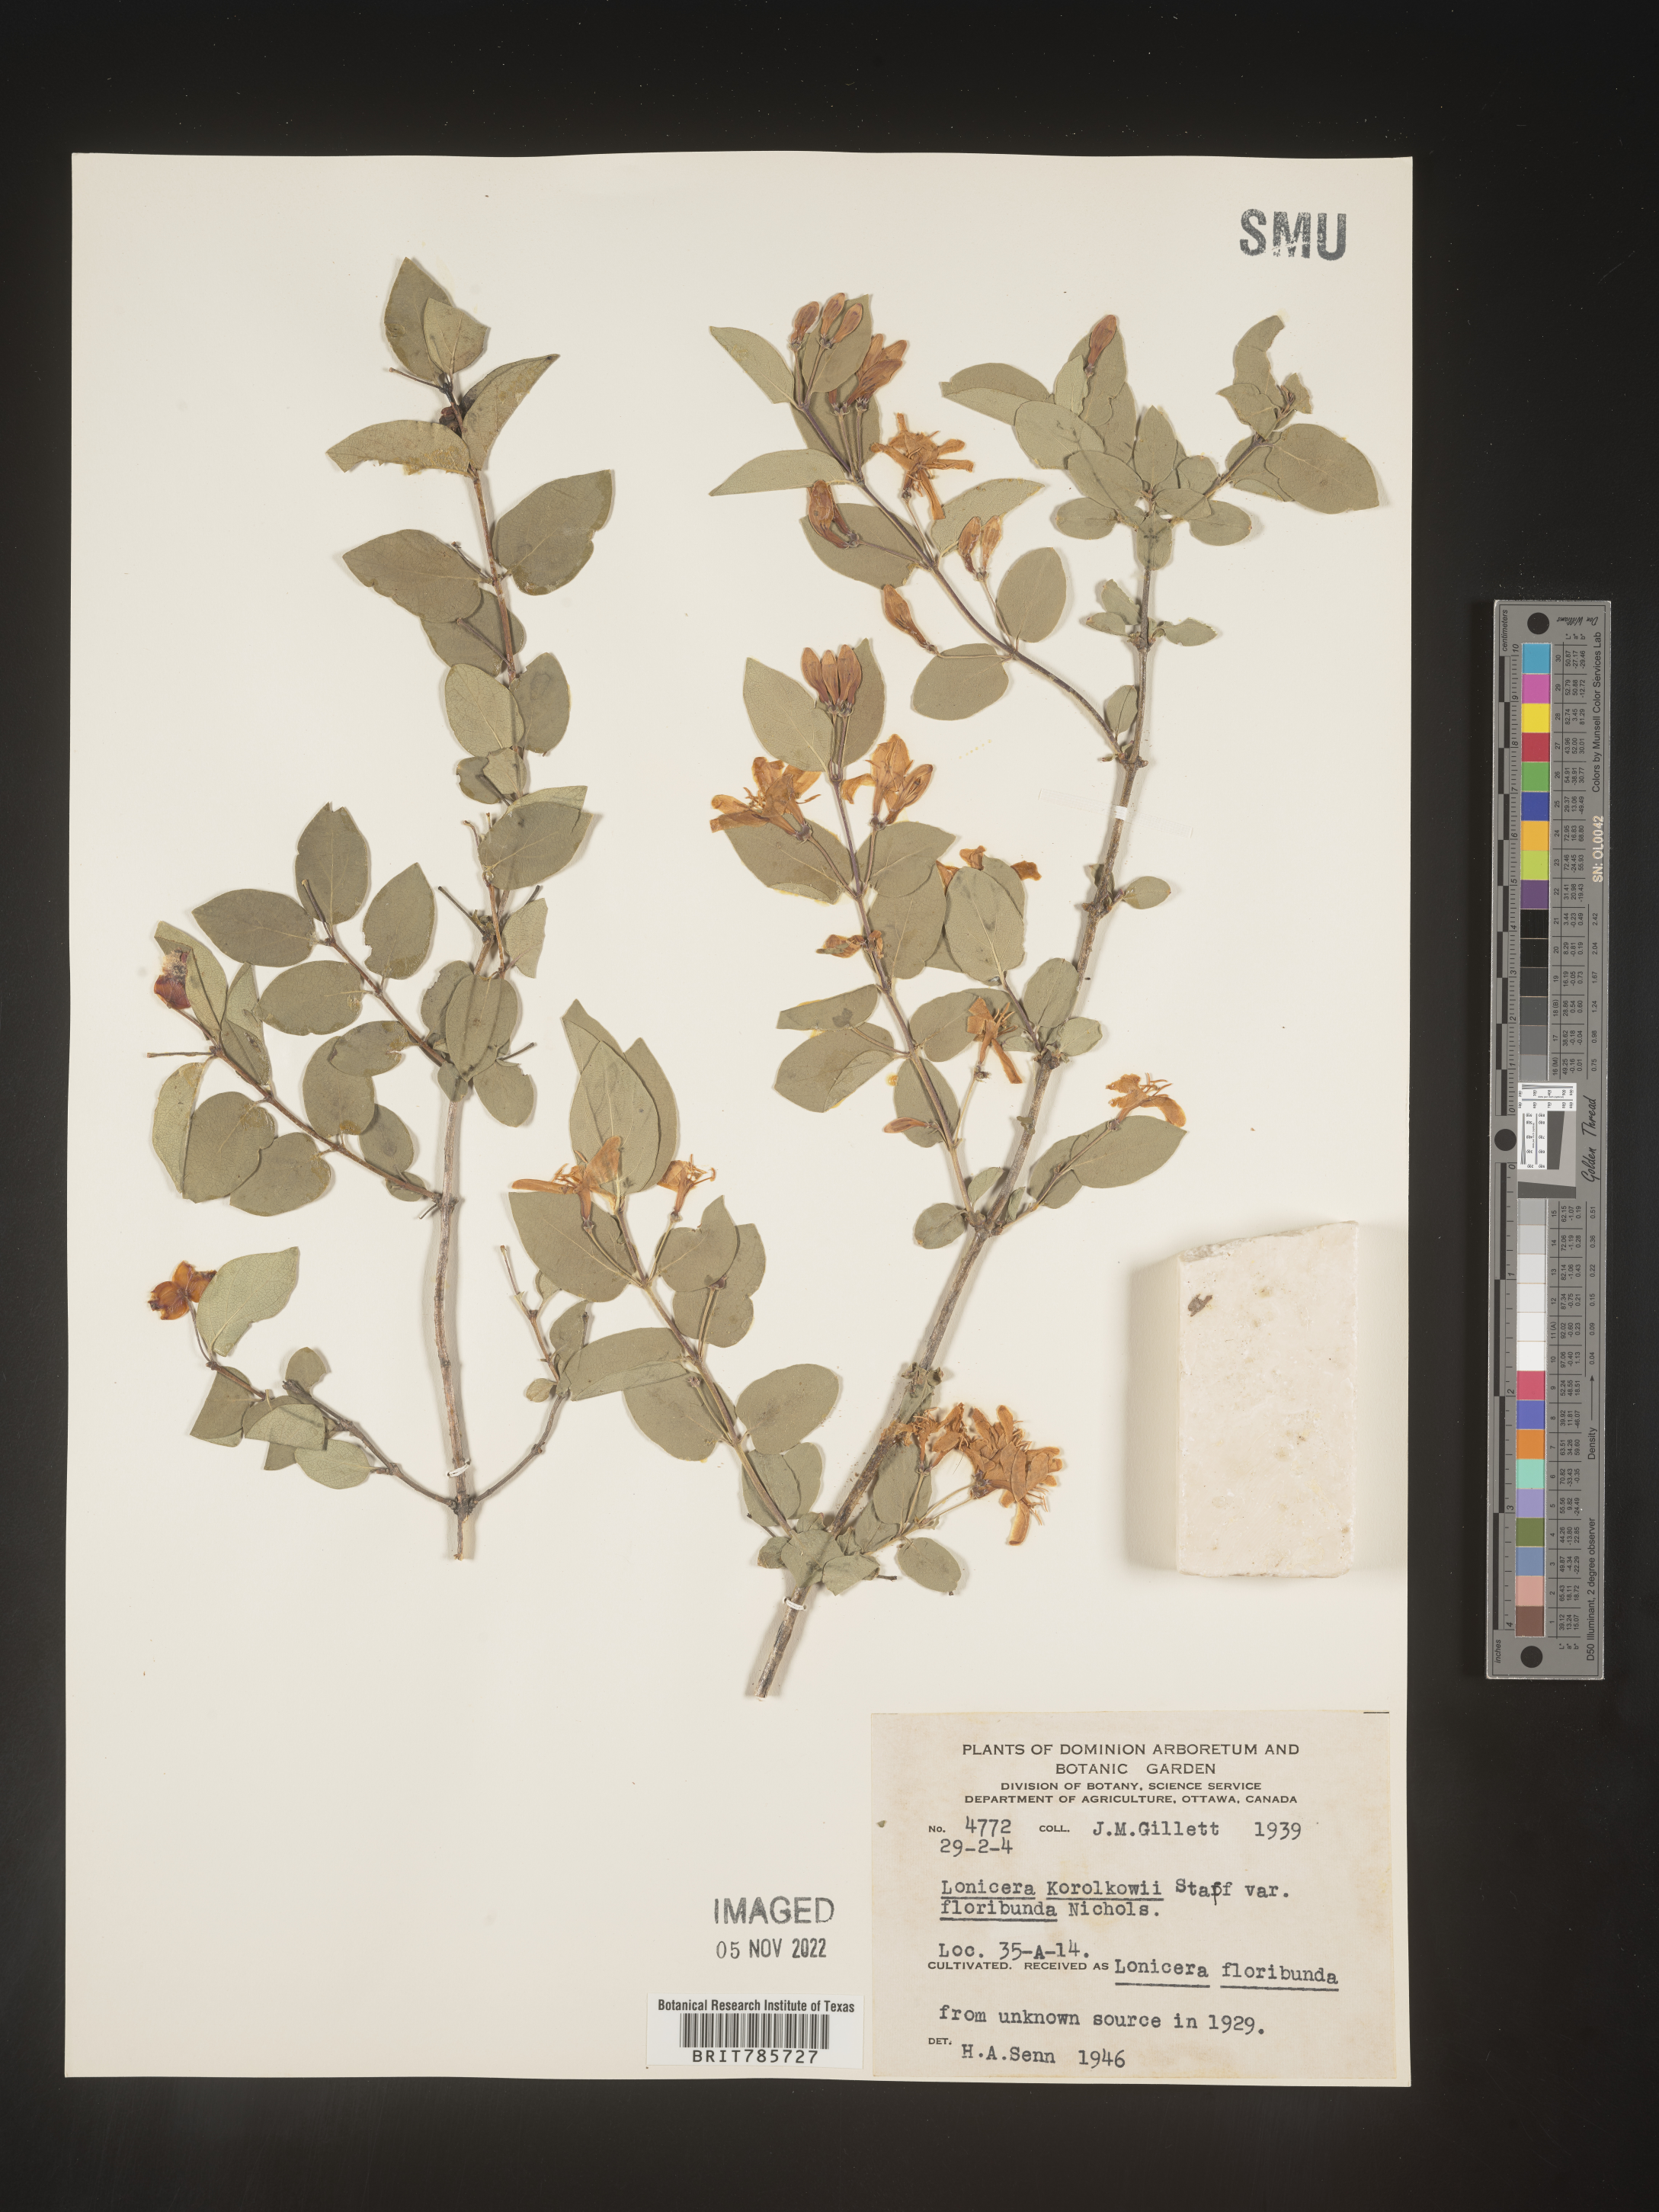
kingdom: Plantae
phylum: Tracheophyta
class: Magnoliopsida
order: Dipsacales
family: Caprifoliaceae
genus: Lonicera
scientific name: Lonicera
